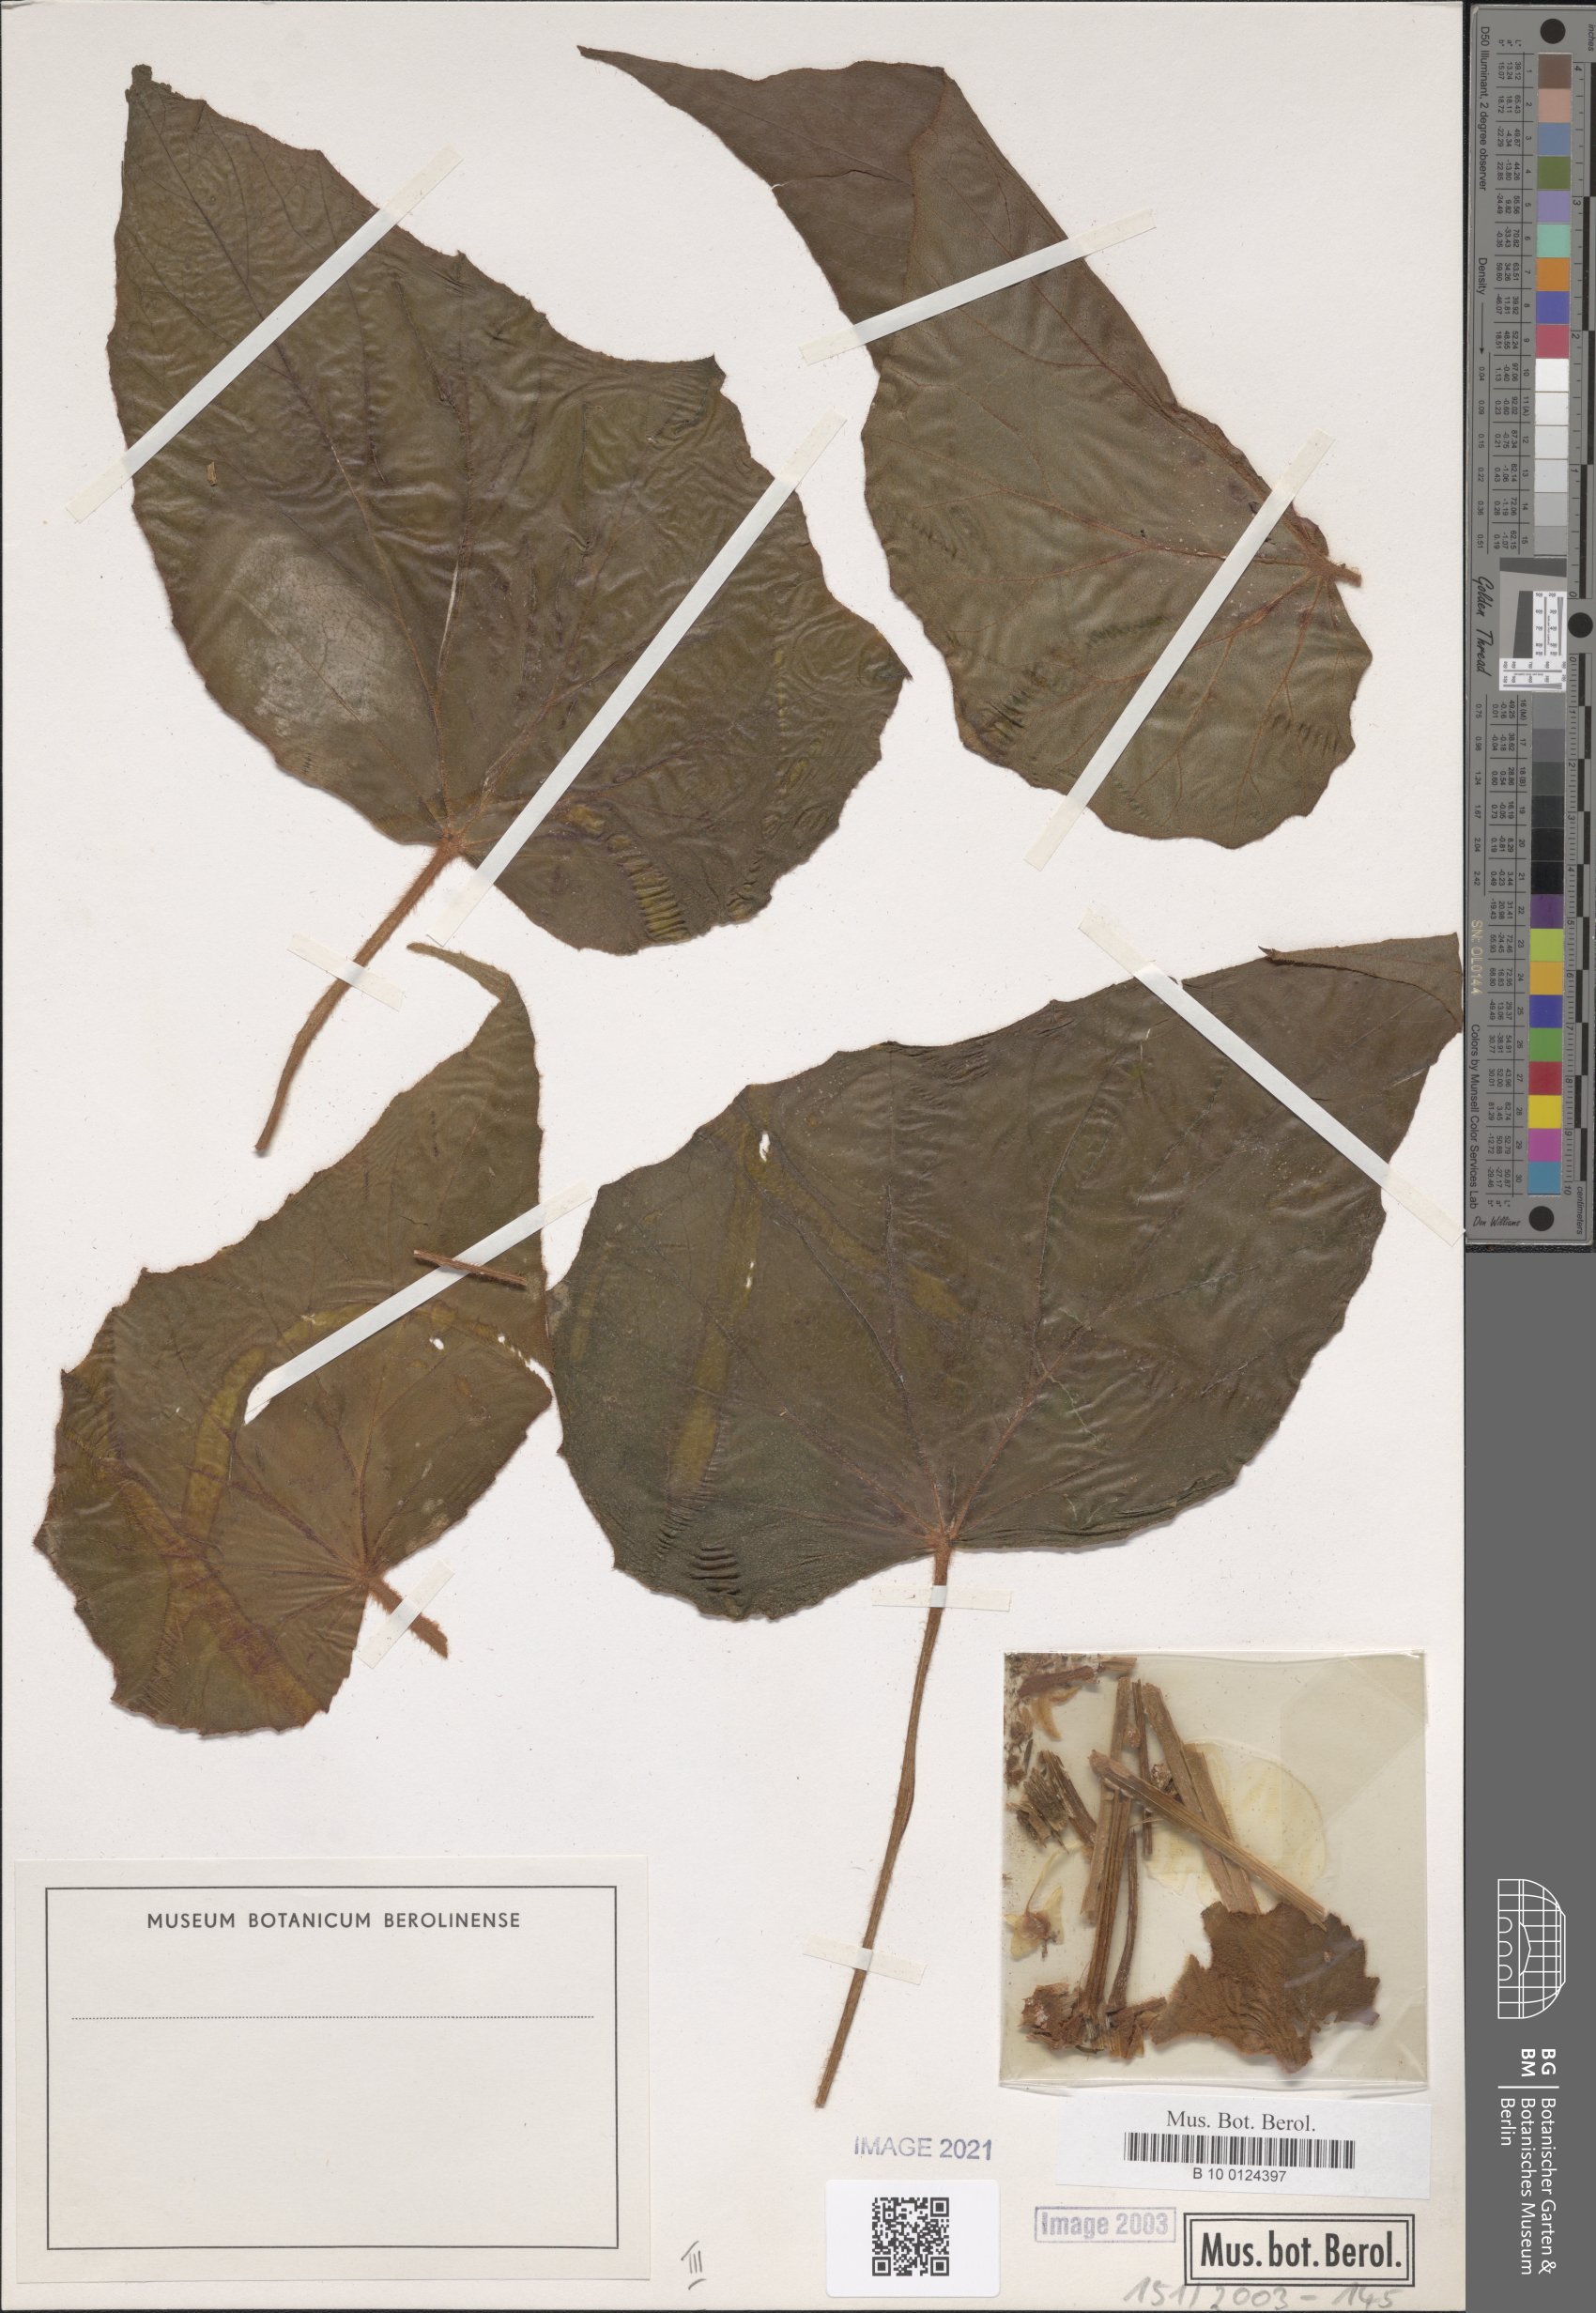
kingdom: Plantae
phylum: Tracheophyta
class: Magnoliopsida
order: Cucurbitales
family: Begoniaceae
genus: Begonia
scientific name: Begonia scharffiana
